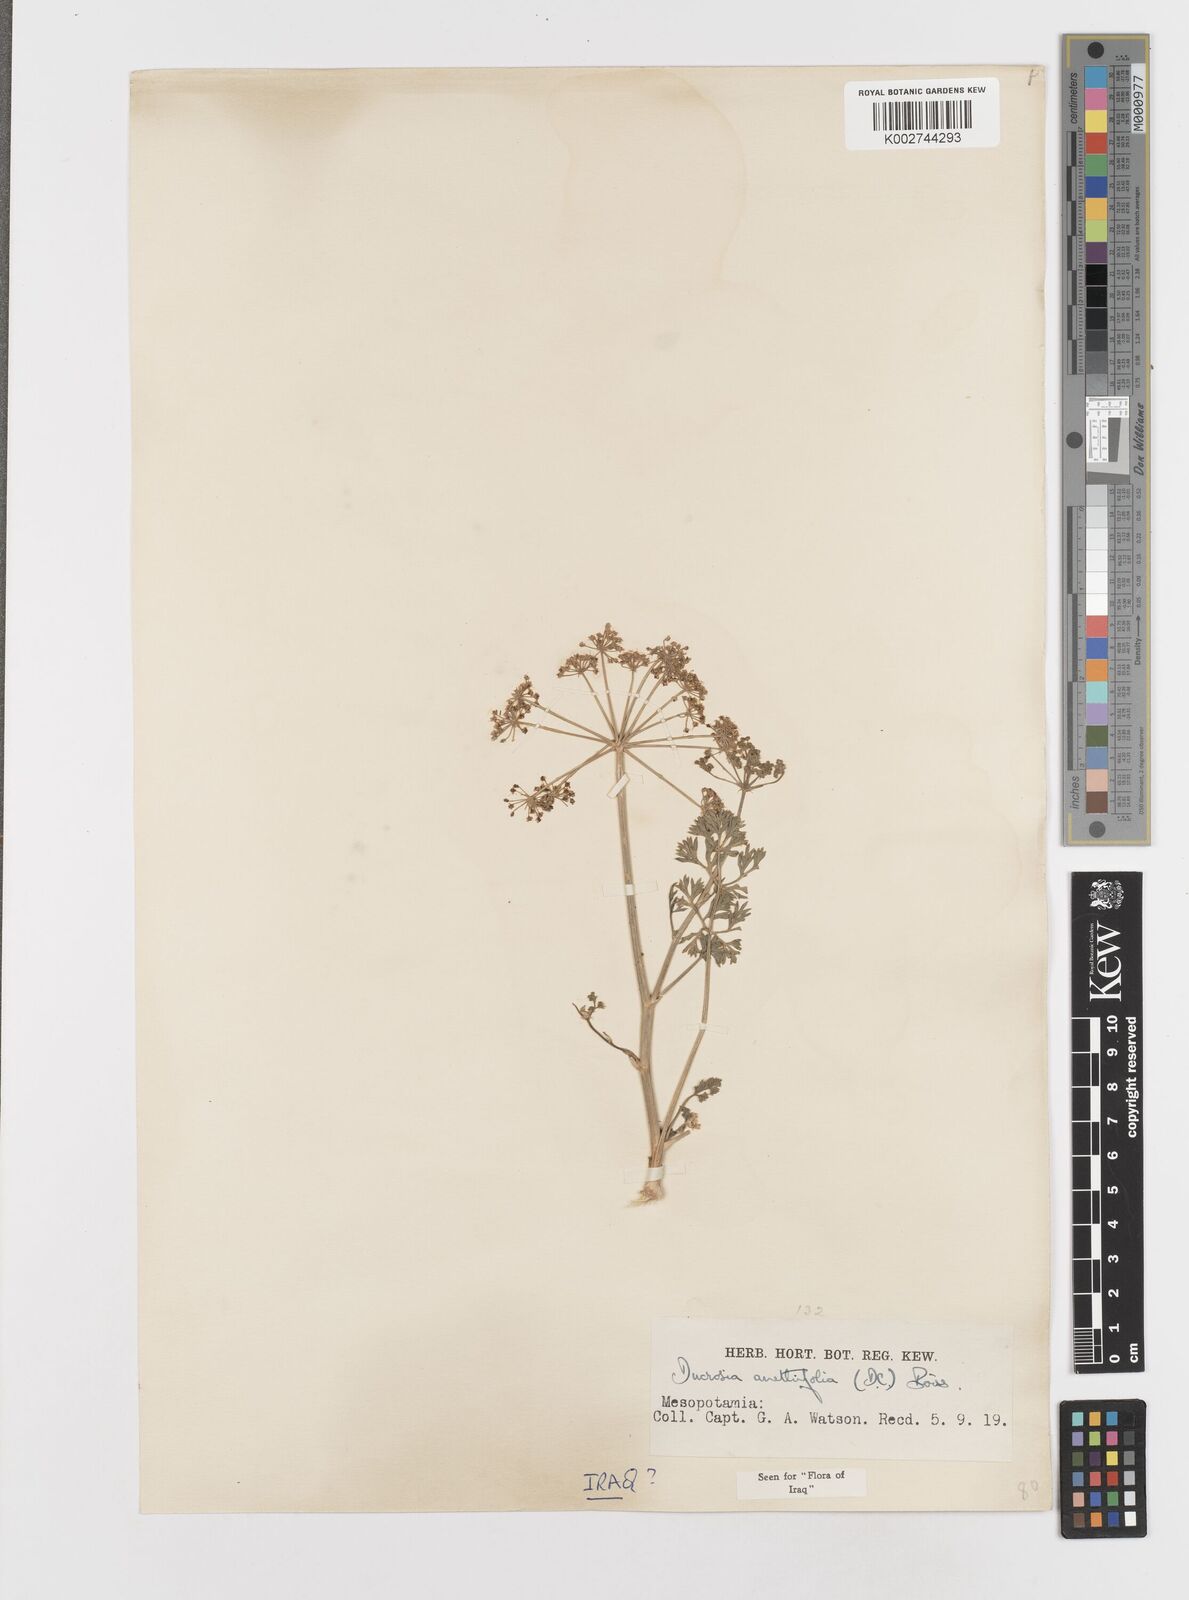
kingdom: Plantae
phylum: Tracheophyta
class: Magnoliopsida
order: Apiales
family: Apiaceae
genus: Ducrosia
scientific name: Ducrosia anethifolia
